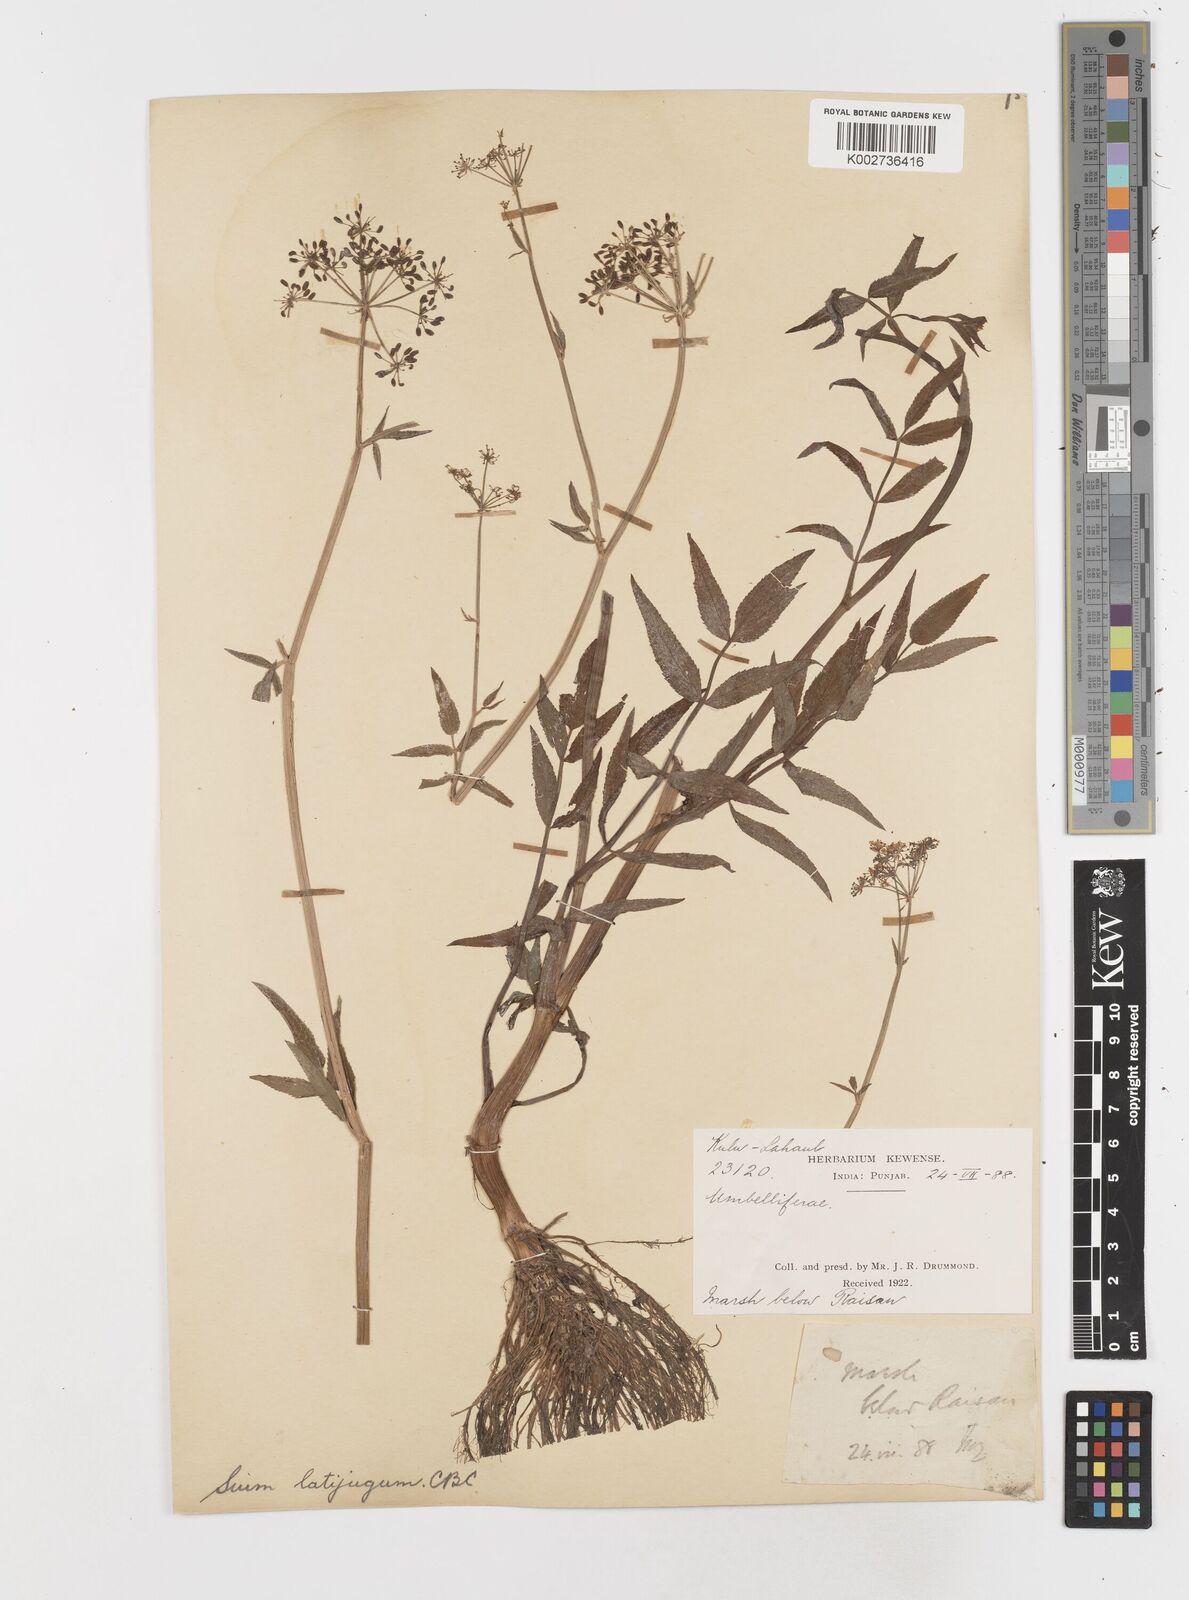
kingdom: Plantae
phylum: Tracheophyta
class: Magnoliopsida
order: Apiales
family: Apiaceae
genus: Sium
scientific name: Sium sisarum
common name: Skirret
